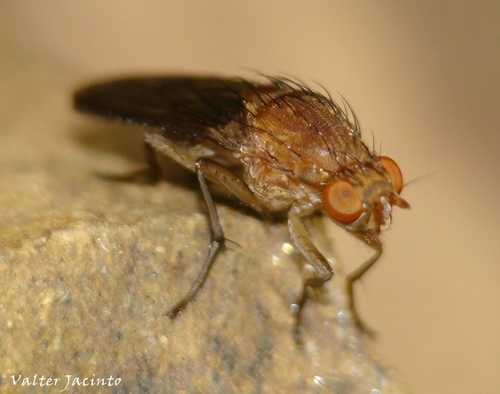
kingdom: Animalia
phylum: Arthropoda
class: Insecta
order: Diptera
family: Heleomyzidae
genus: Suillia
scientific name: Suillia notata
